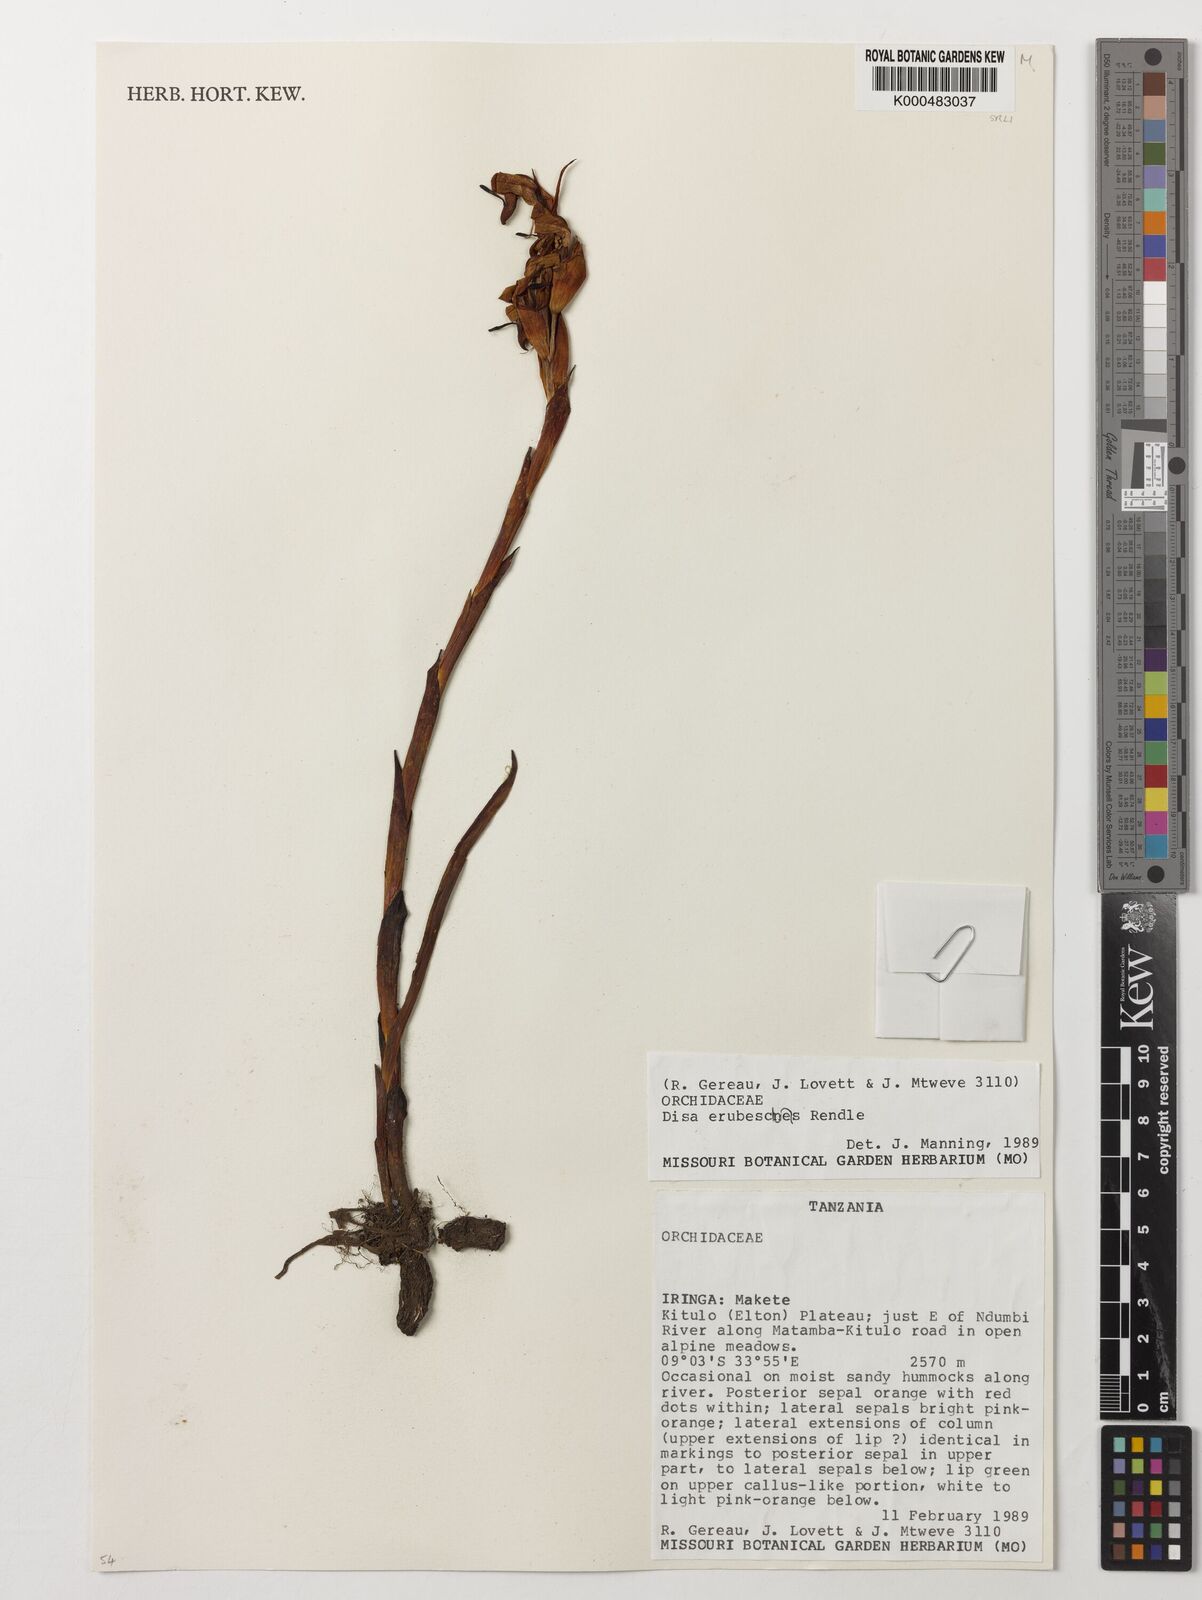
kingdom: Plantae
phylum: Tracheophyta
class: Liliopsida
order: Asparagales
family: Orchidaceae
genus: Disa
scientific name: Disa erubescens
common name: The rose disa
